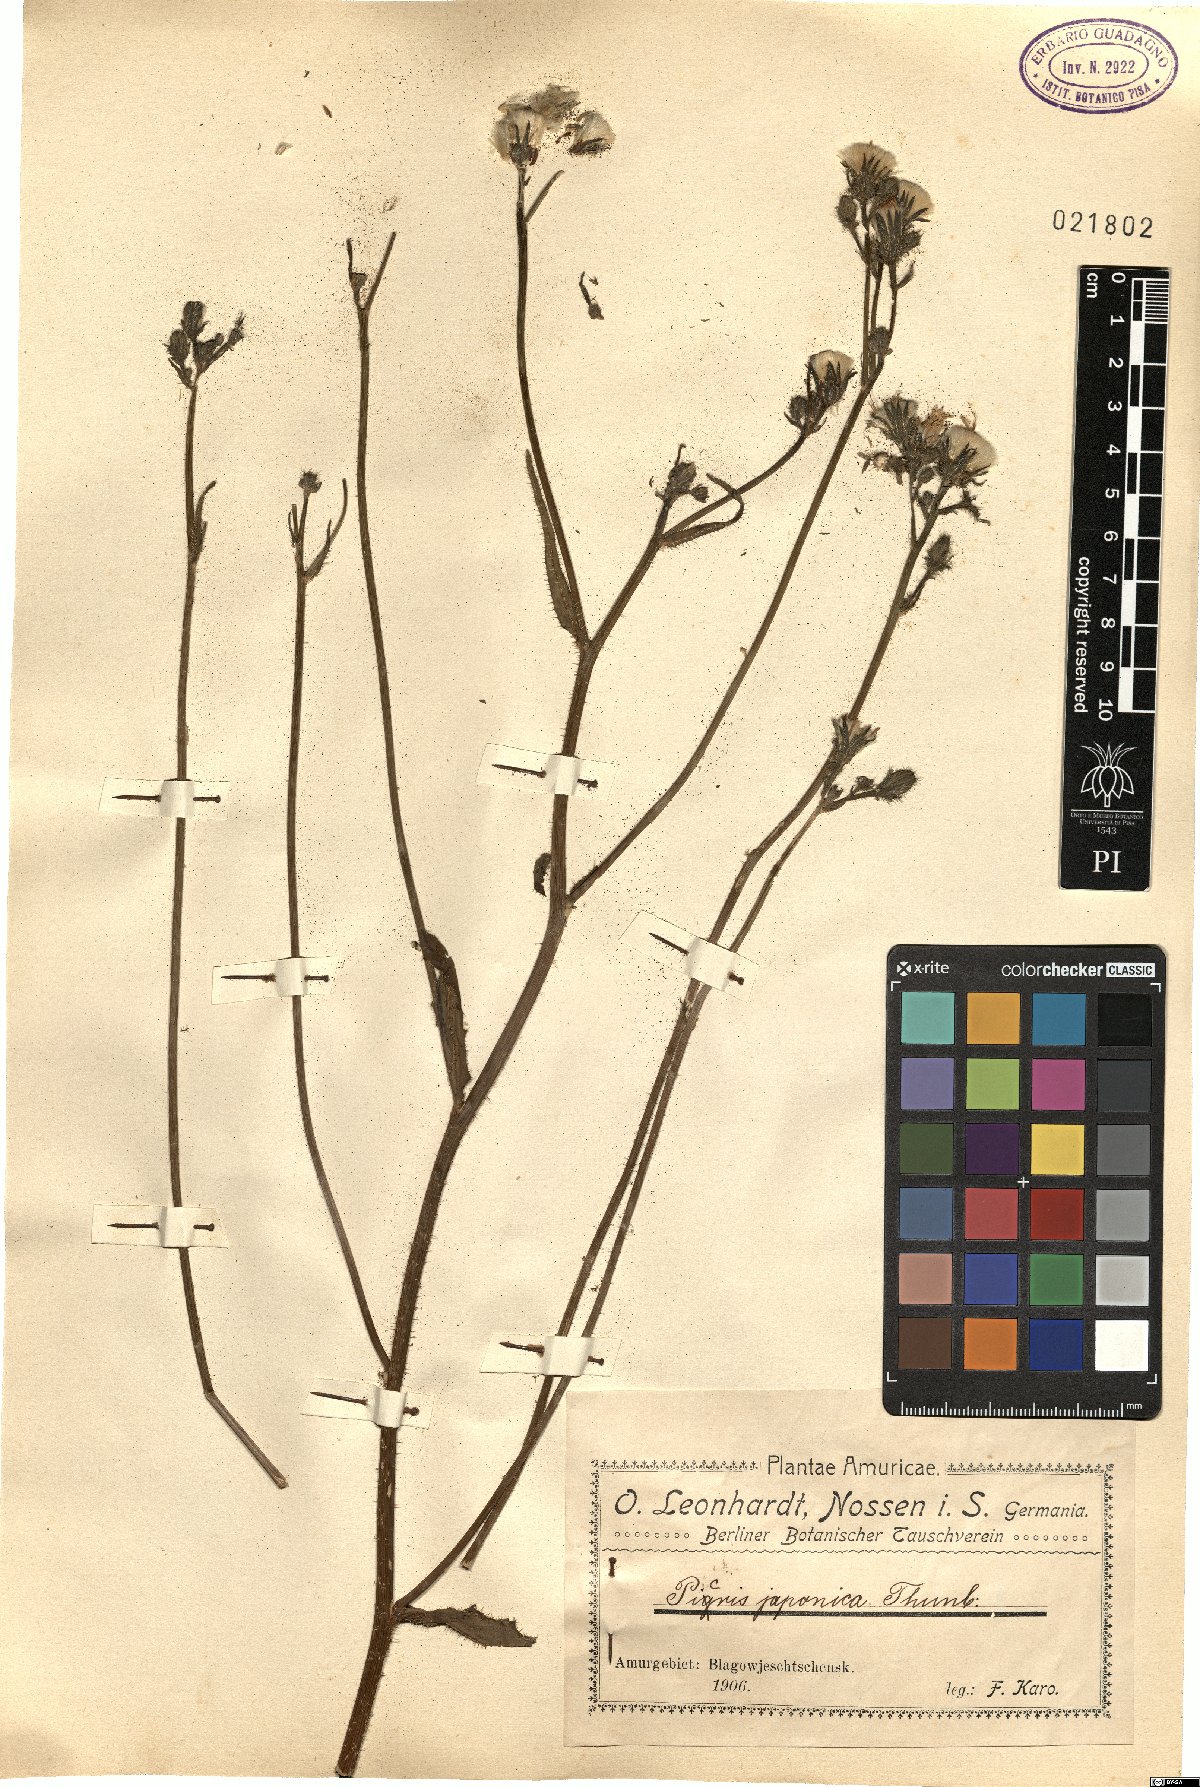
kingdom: Plantae
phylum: Tracheophyta
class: Magnoliopsida
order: Asterales
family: Asteraceae
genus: Picris
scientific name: Picris japonica
